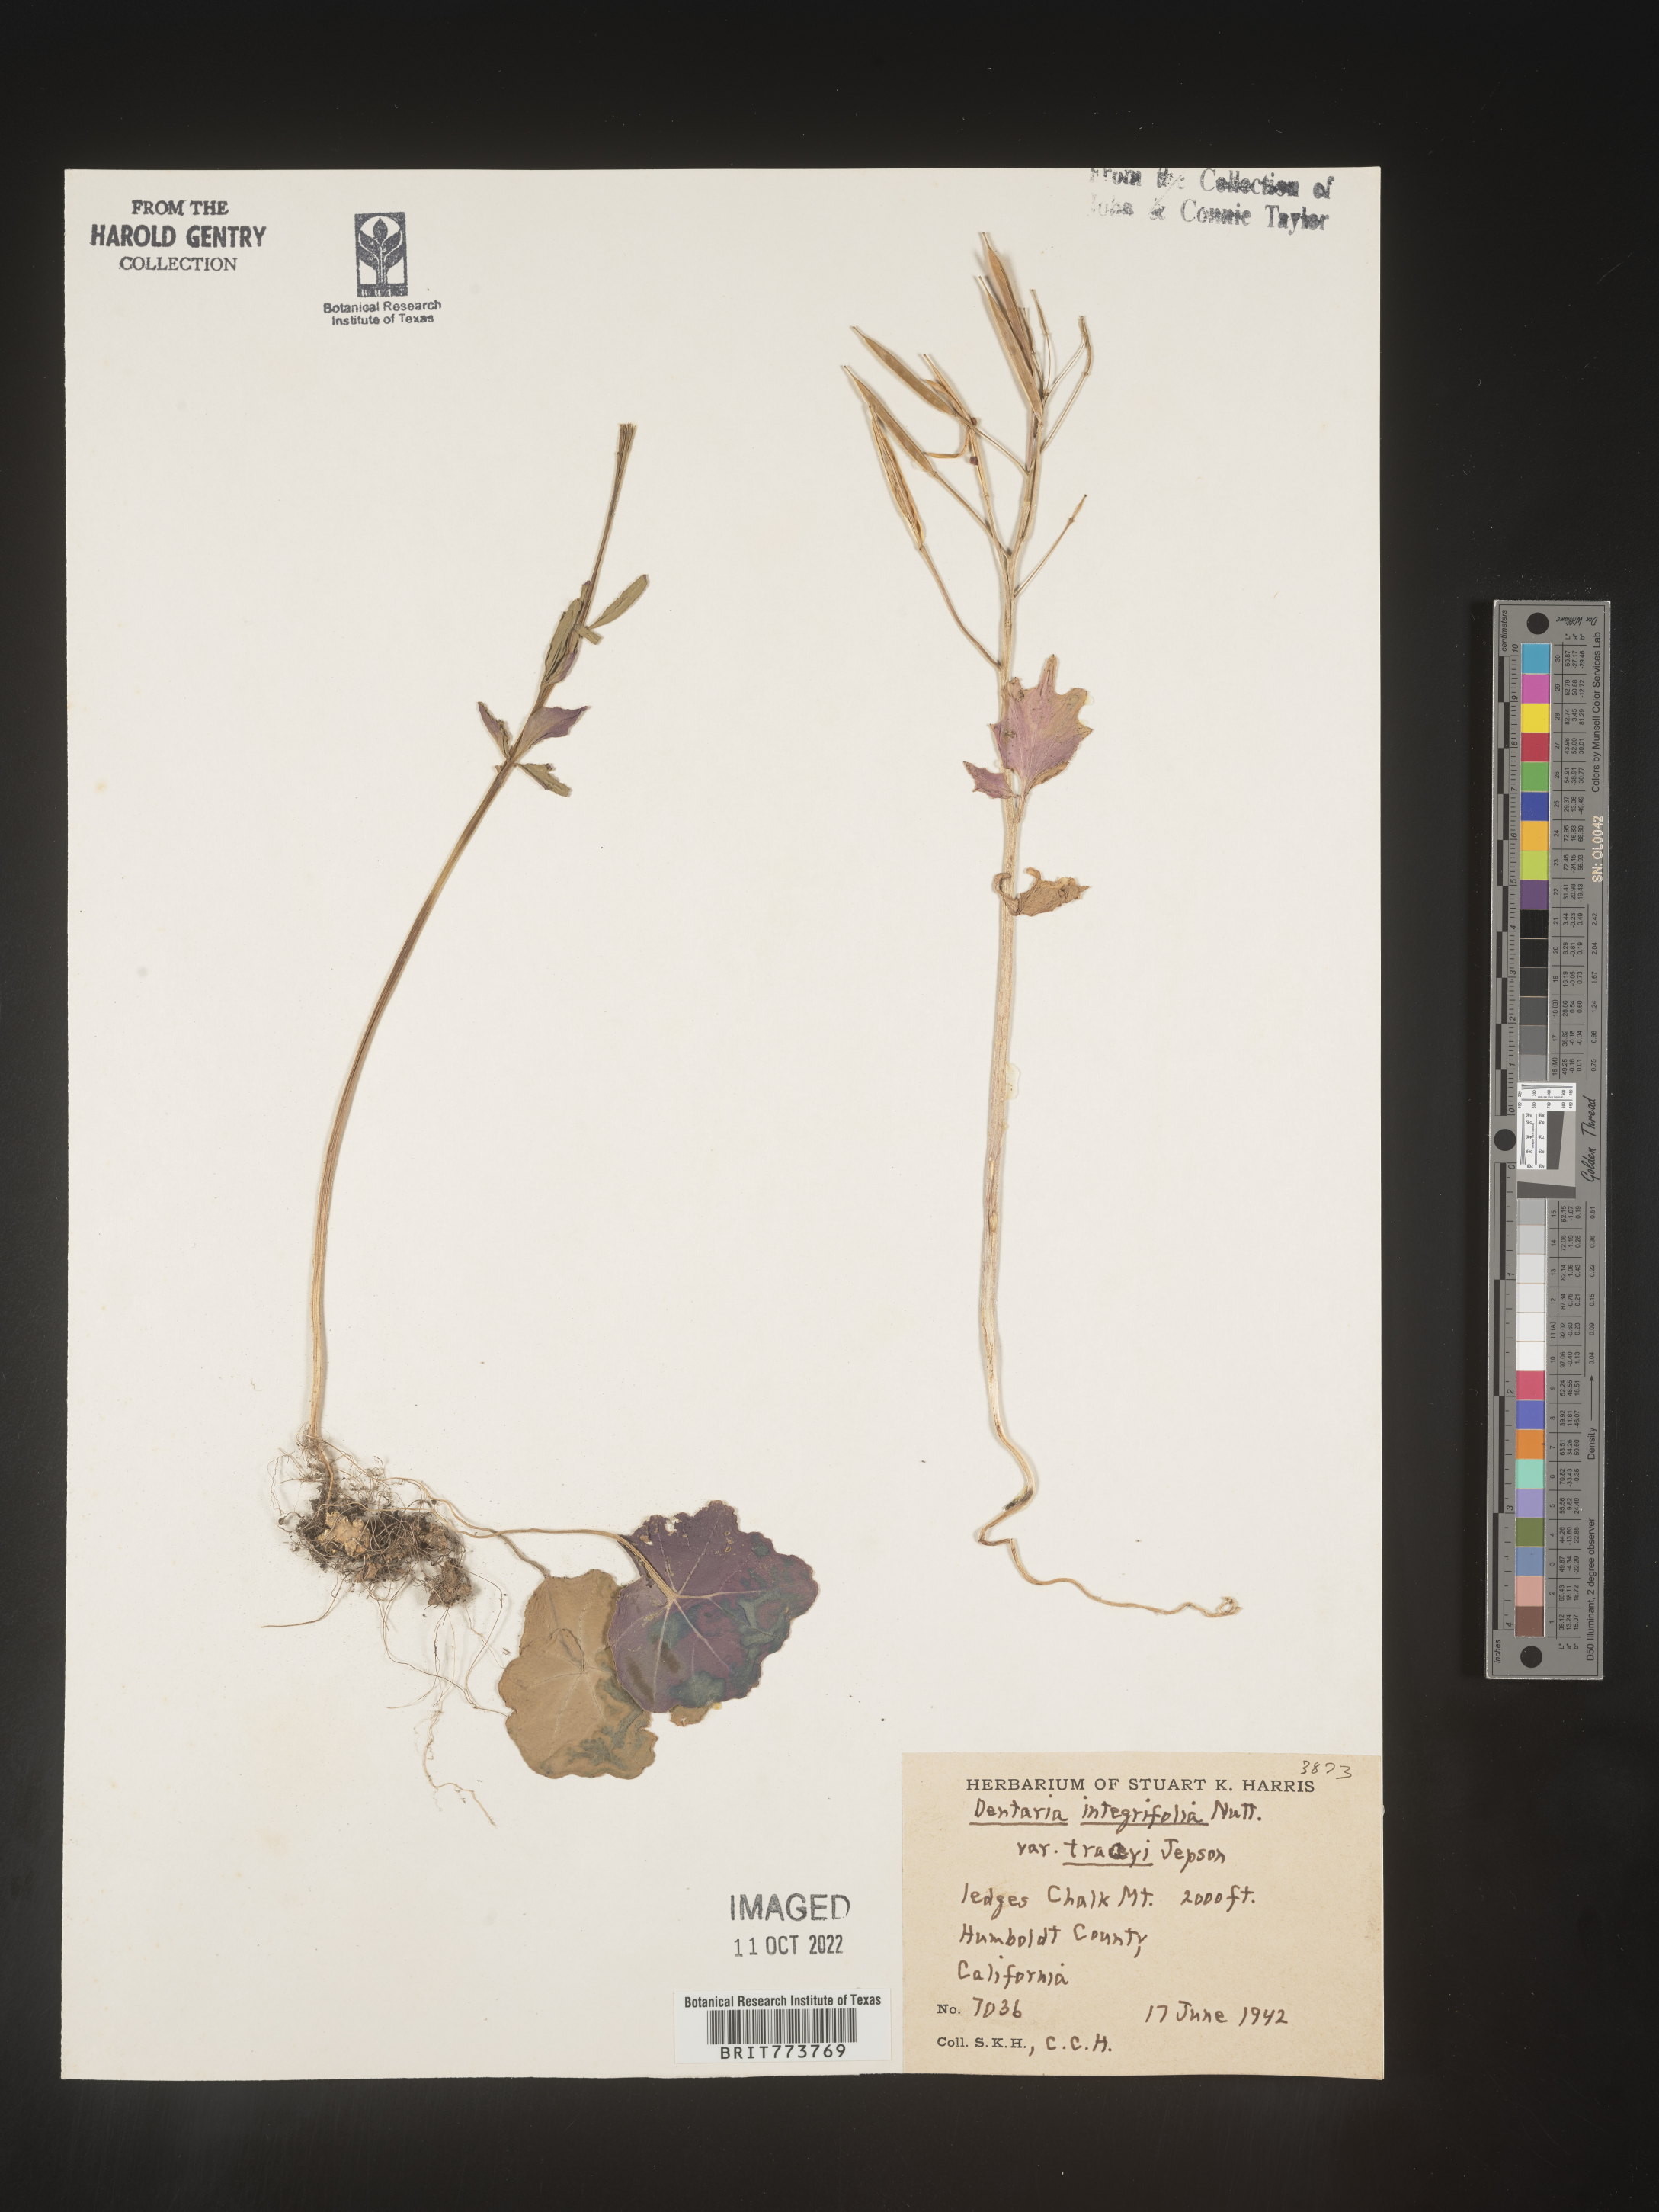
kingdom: Plantae
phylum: Tracheophyta
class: Magnoliopsida
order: Brassicales
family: Brassicaceae
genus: Cardamine
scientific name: Cardamine bellidifolia
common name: Alpine bittercress
